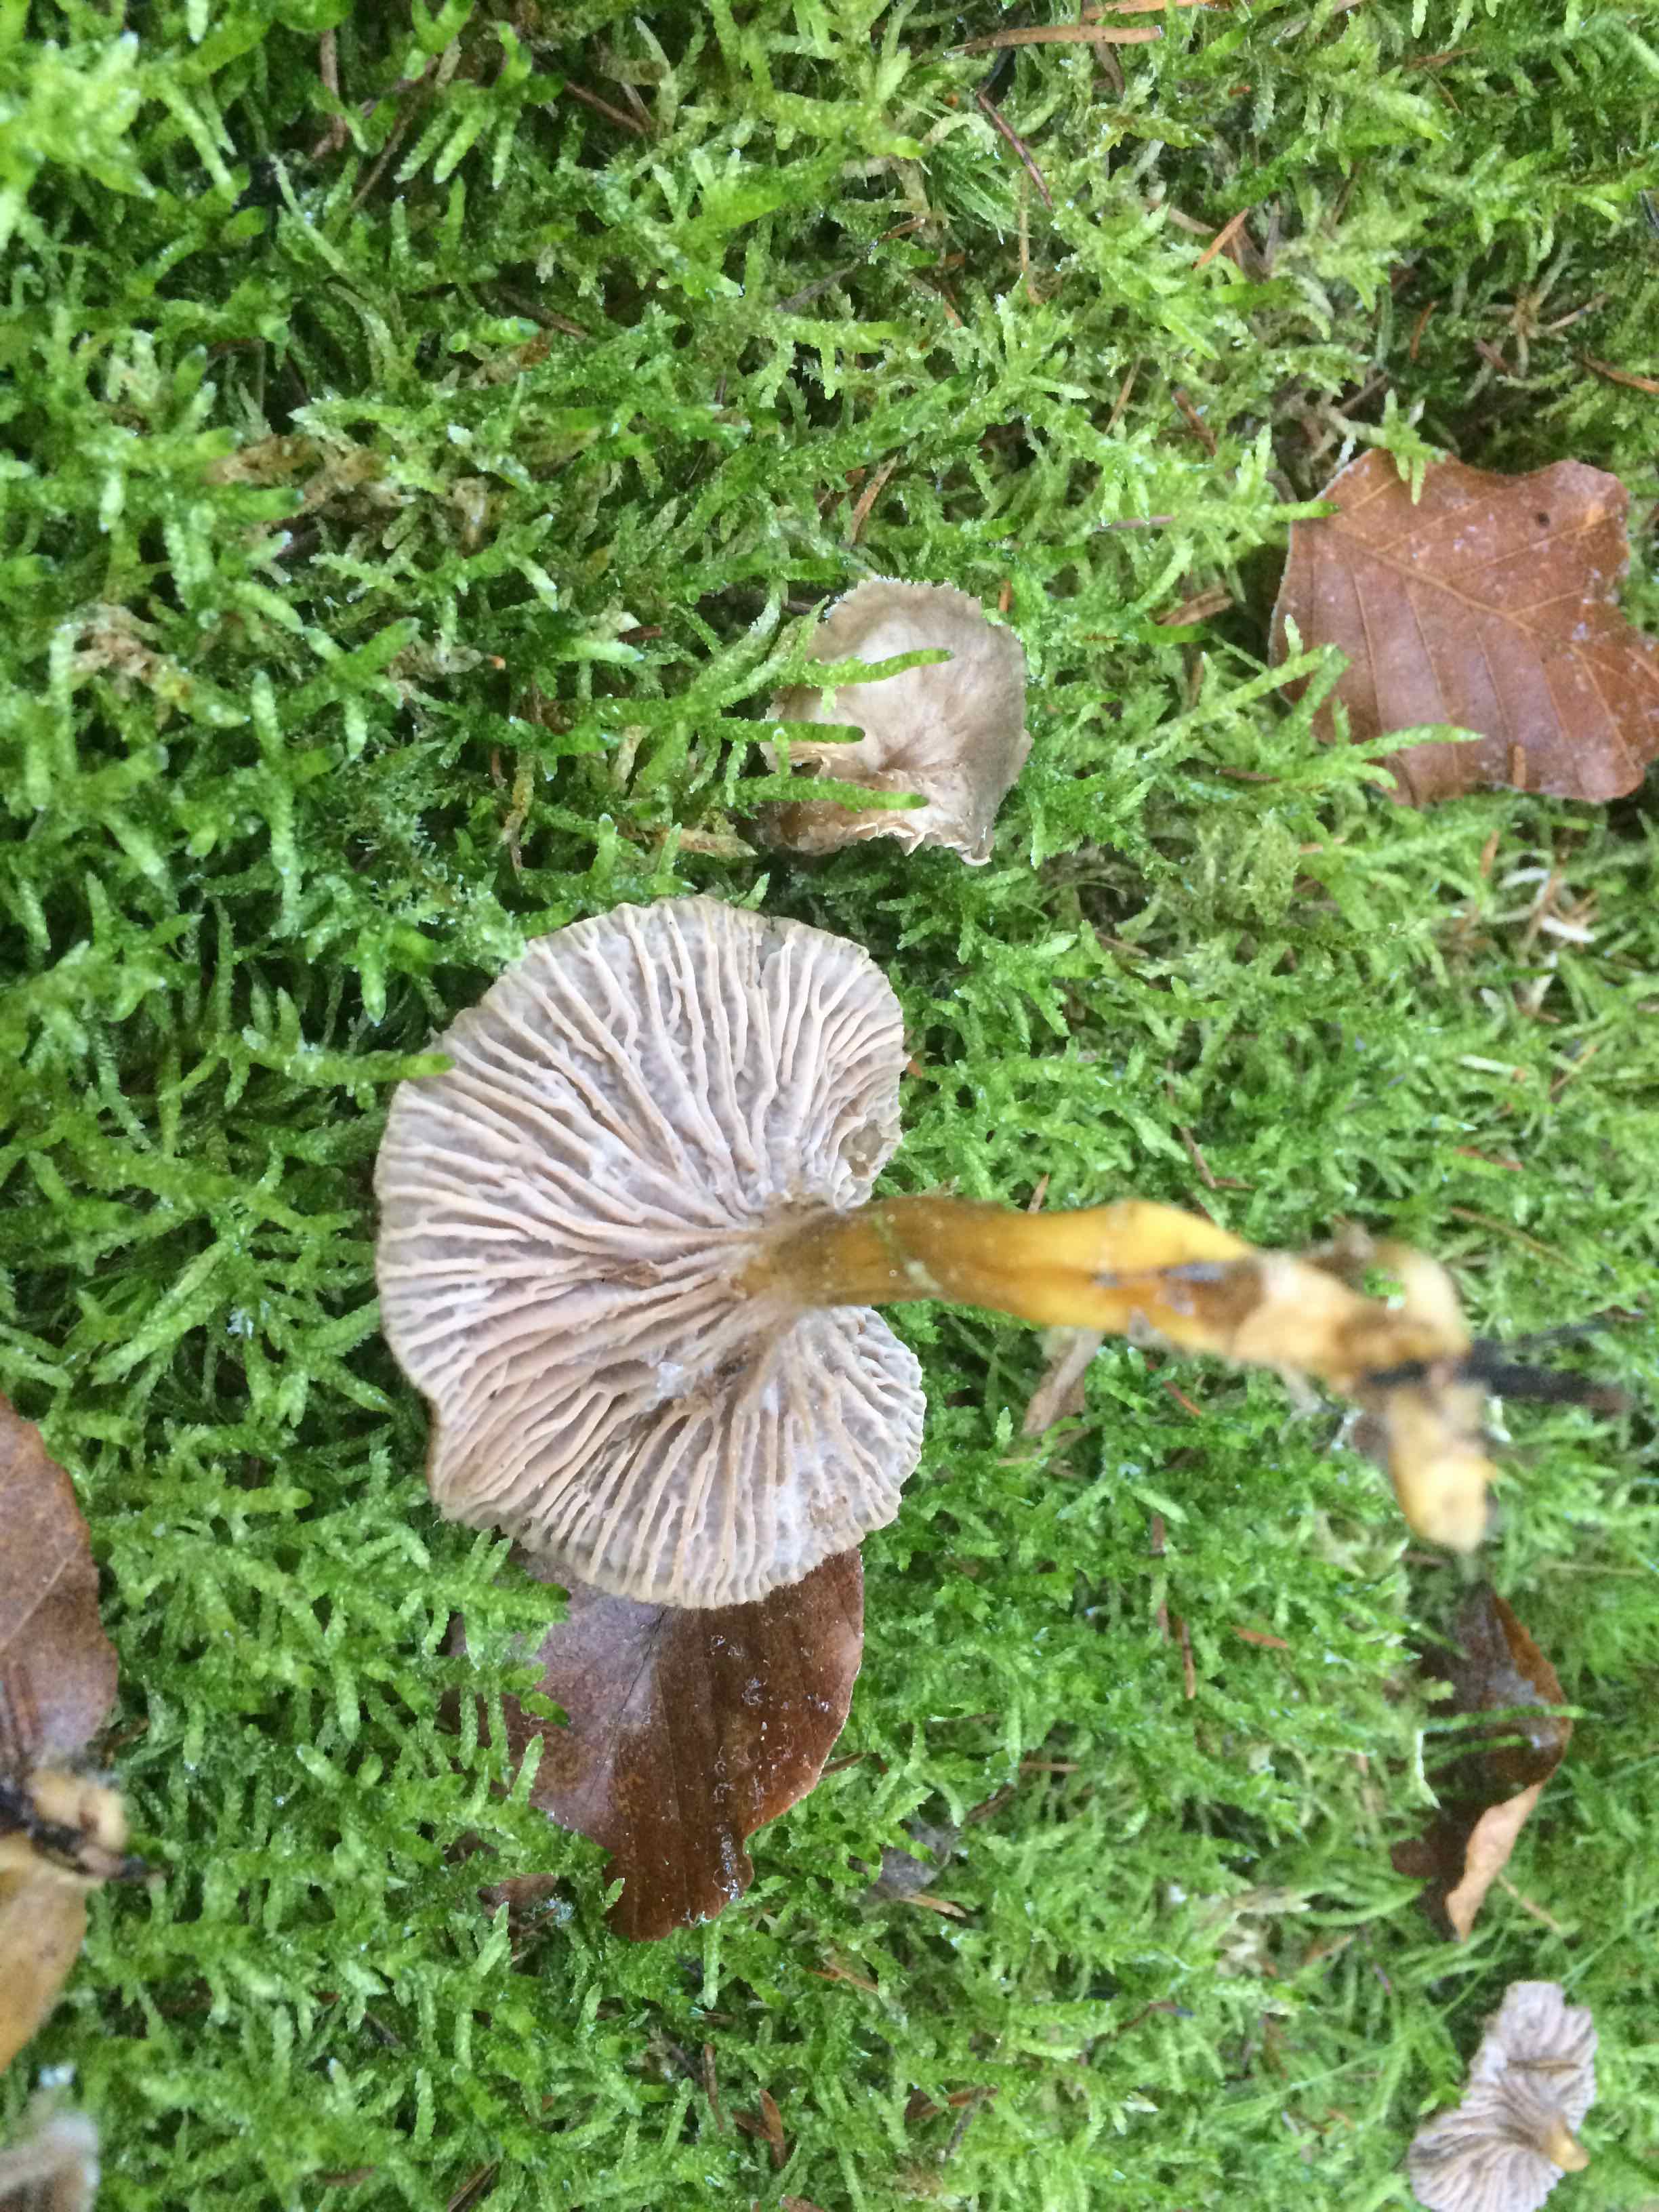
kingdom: Fungi
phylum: Basidiomycota
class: Agaricomycetes
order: Cantharellales
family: Hydnaceae
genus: Craterellus
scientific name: Craterellus tubaeformis
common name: tragt-kantarel
